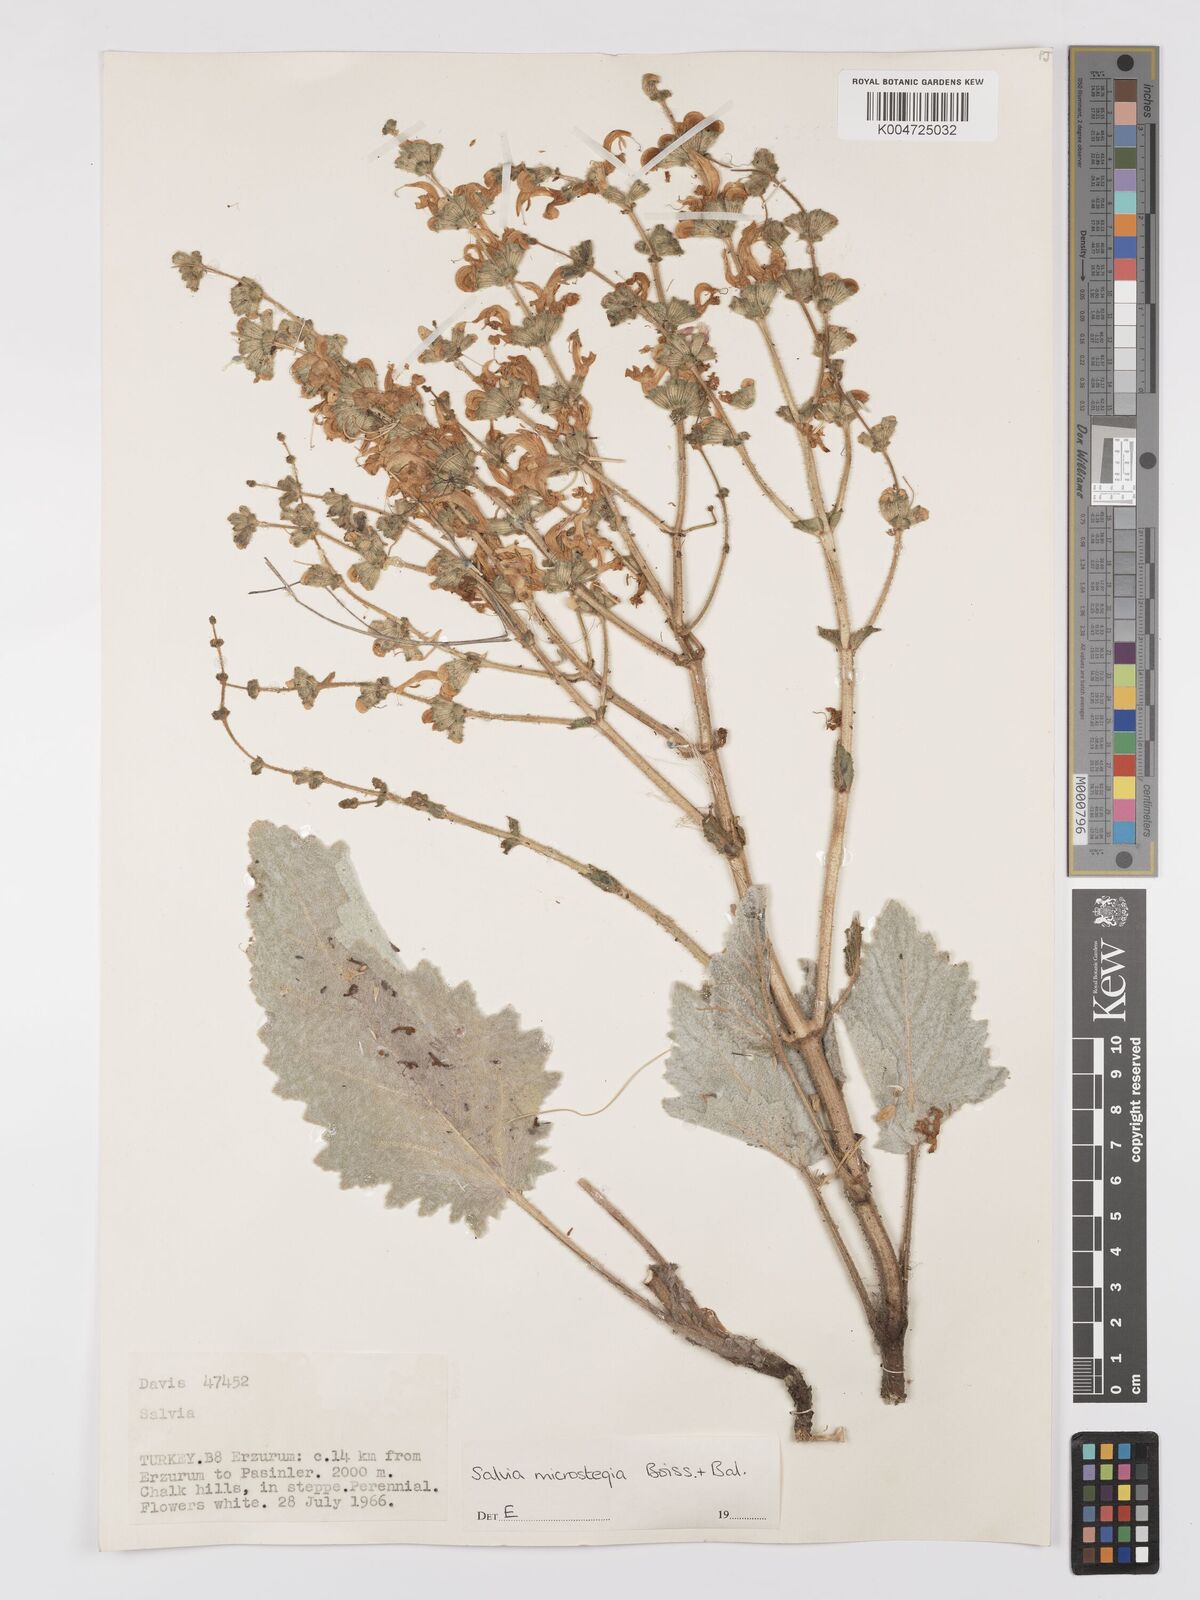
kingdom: Plantae
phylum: Tracheophyta
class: Magnoliopsida
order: Lamiales
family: Lamiaceae
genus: Salvia
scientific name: Salvia microstegia
